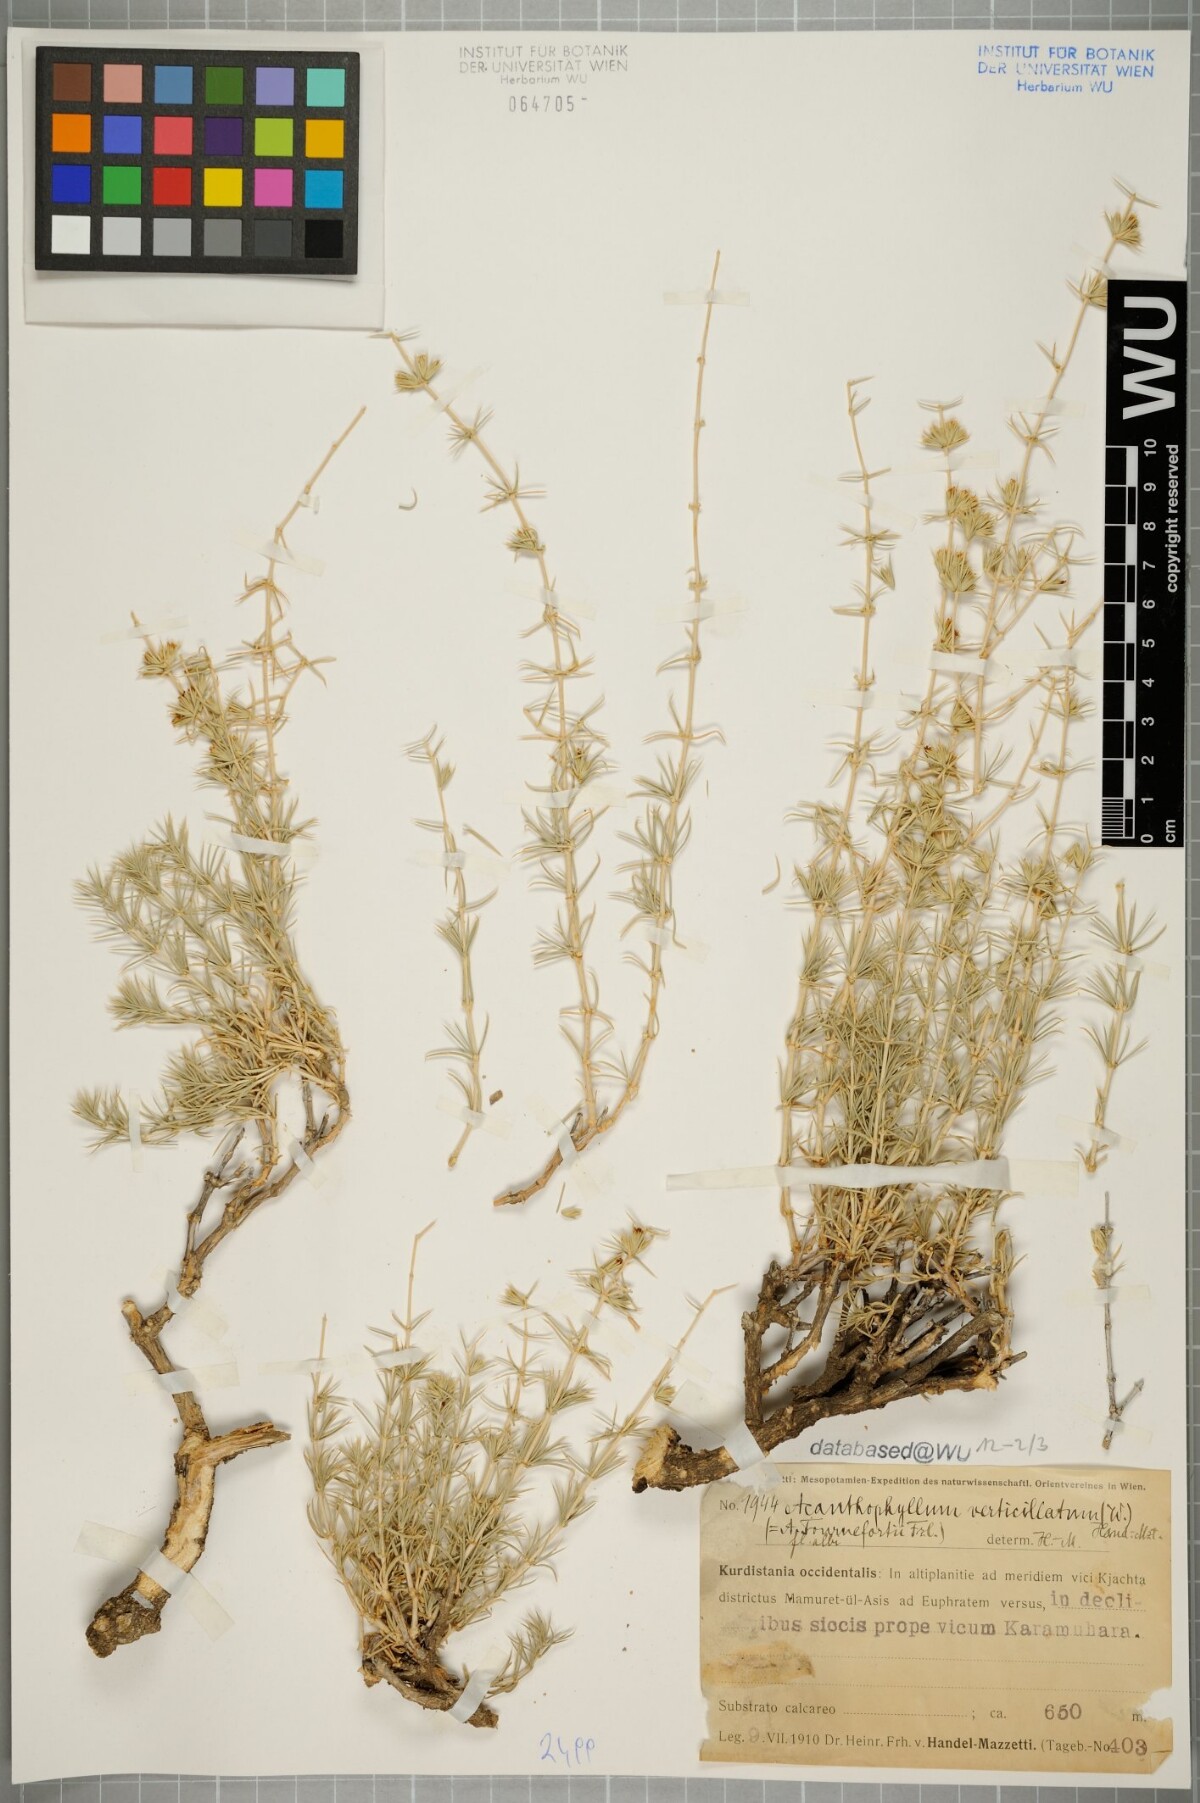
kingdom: Plantae
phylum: Tracheophyta
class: Magnoliopsida
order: Caryophyllales
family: Caryophyllaceae
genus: Acanthophyllum
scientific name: Acanthophyllum verticillatum
